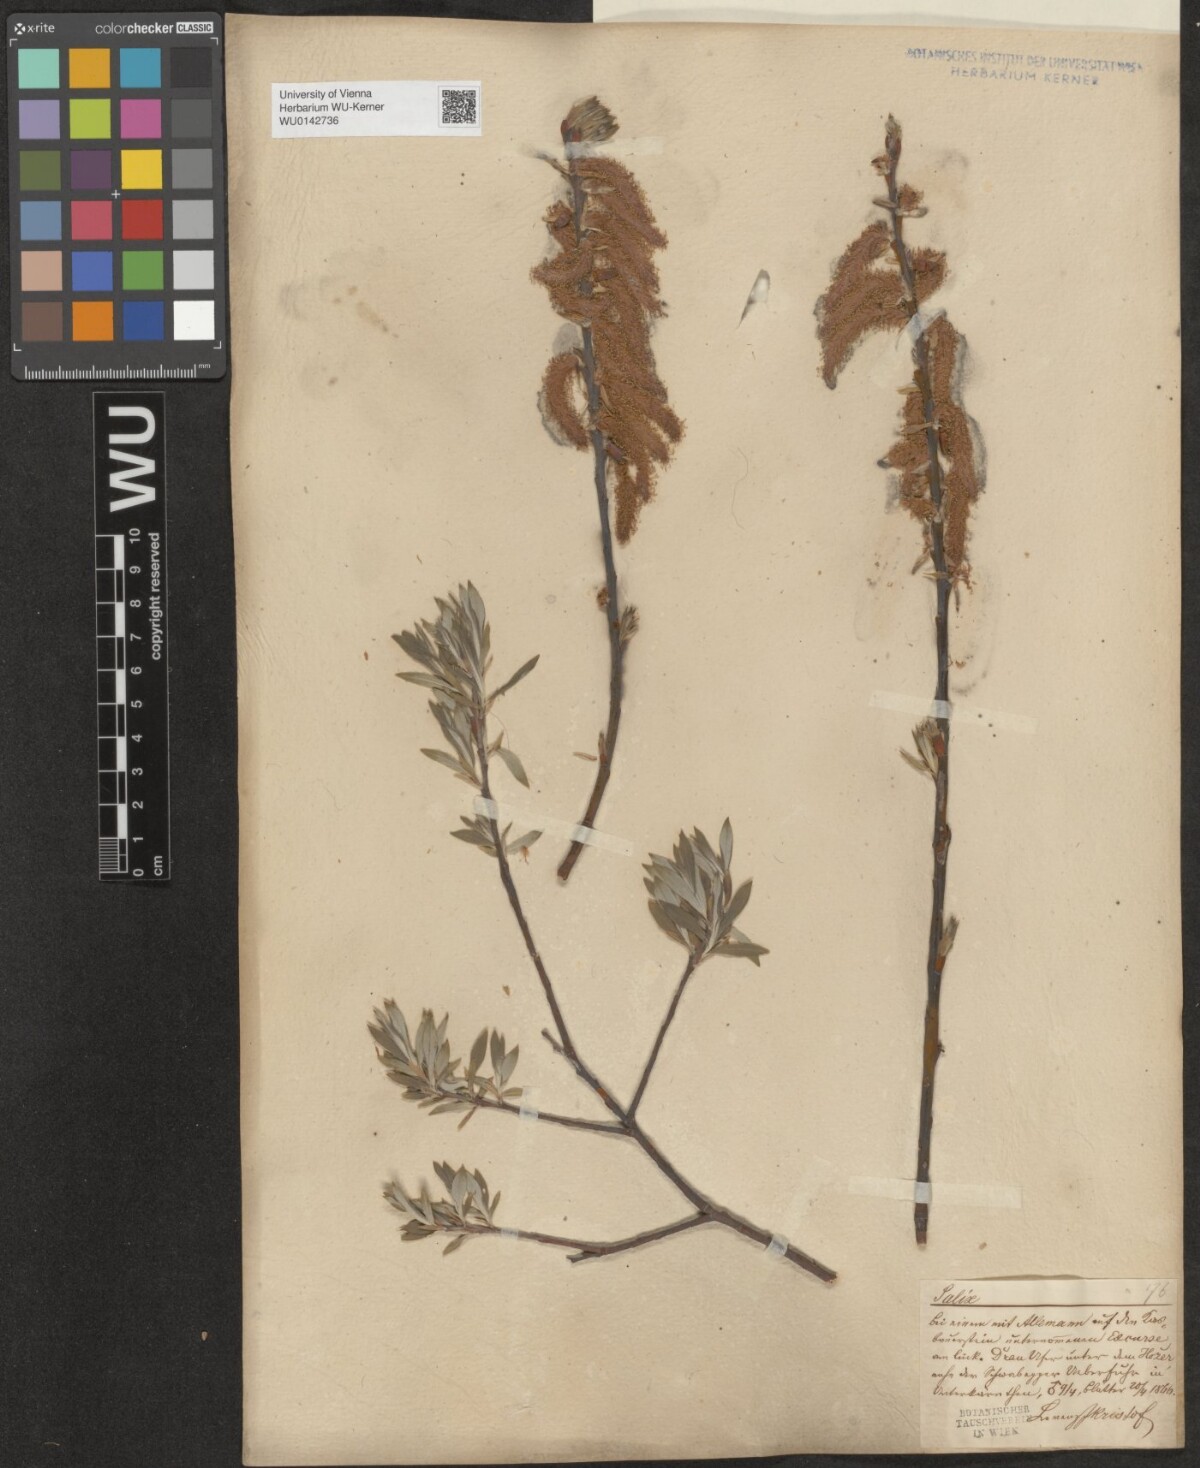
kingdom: Plantae
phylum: Tracheophyta
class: Magnoliopsida
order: Malpighiales
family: Salicaceae
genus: Salix
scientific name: Salix eleagnos
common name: Elaeagnus willow
